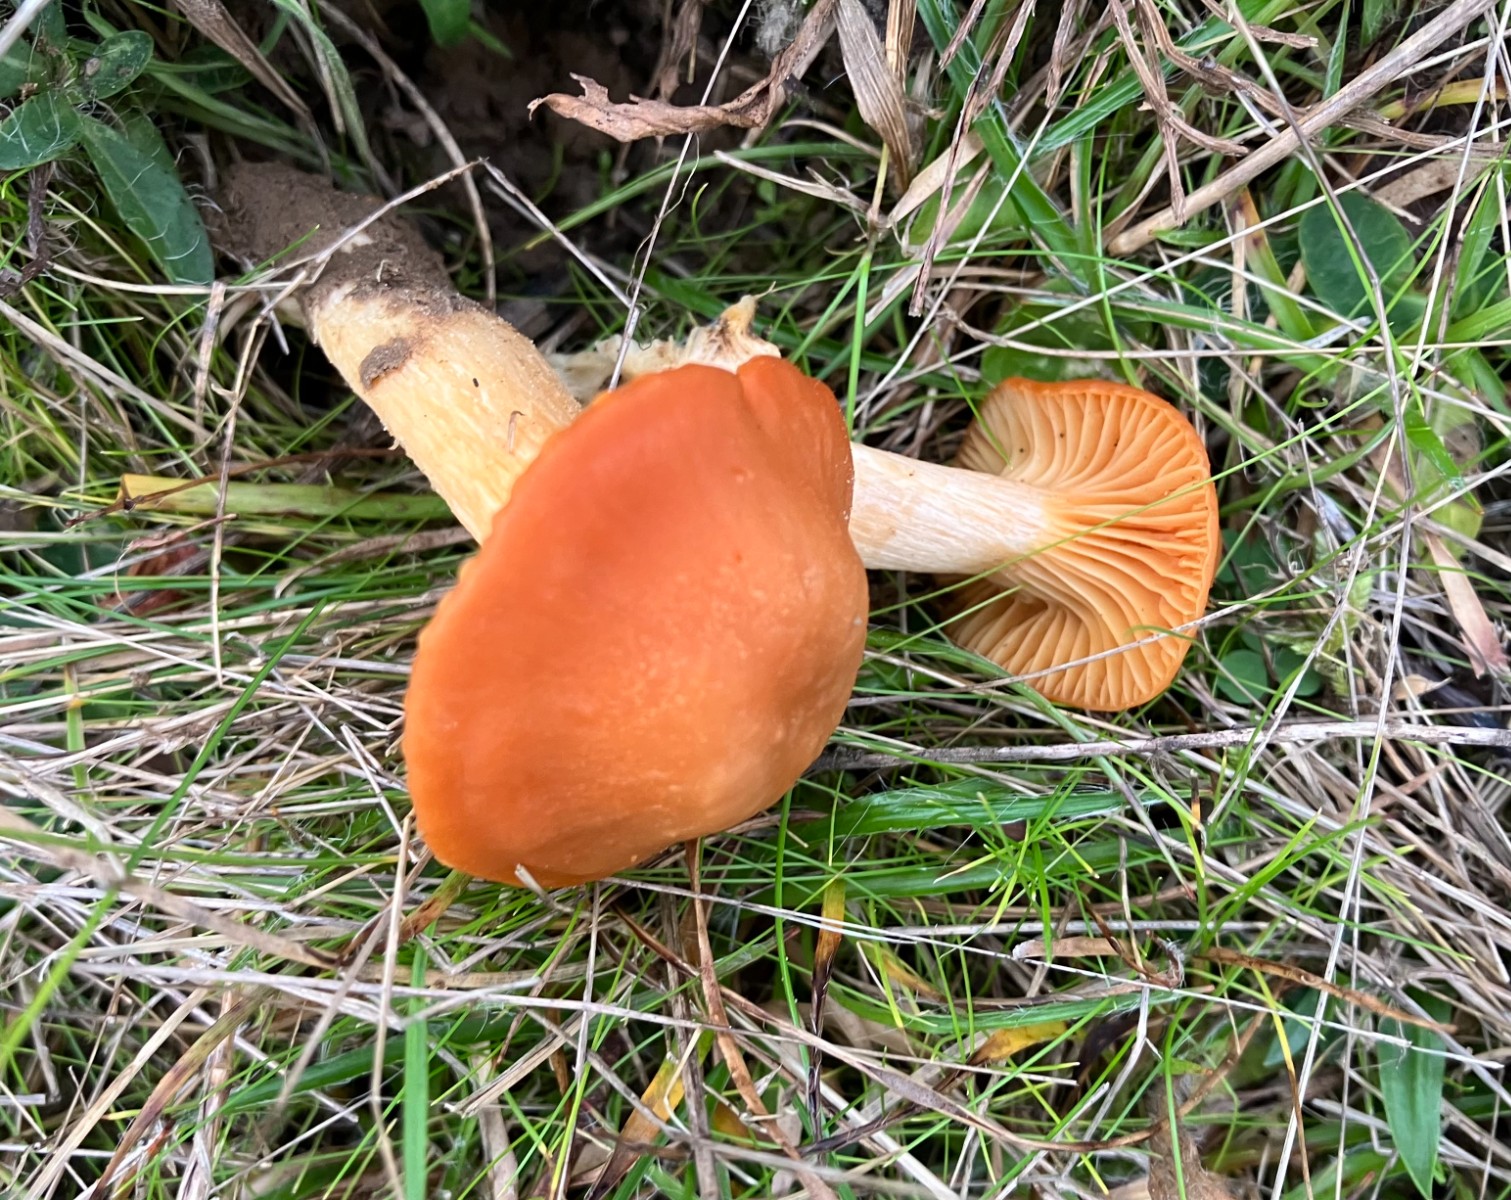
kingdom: Fungi
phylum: Basidiomycota
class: Agaricomycetes
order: Agaricales
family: Hygrophoraceae
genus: Cuphophyllus
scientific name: Cuphophyllus pratensis
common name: eng-vokshat
